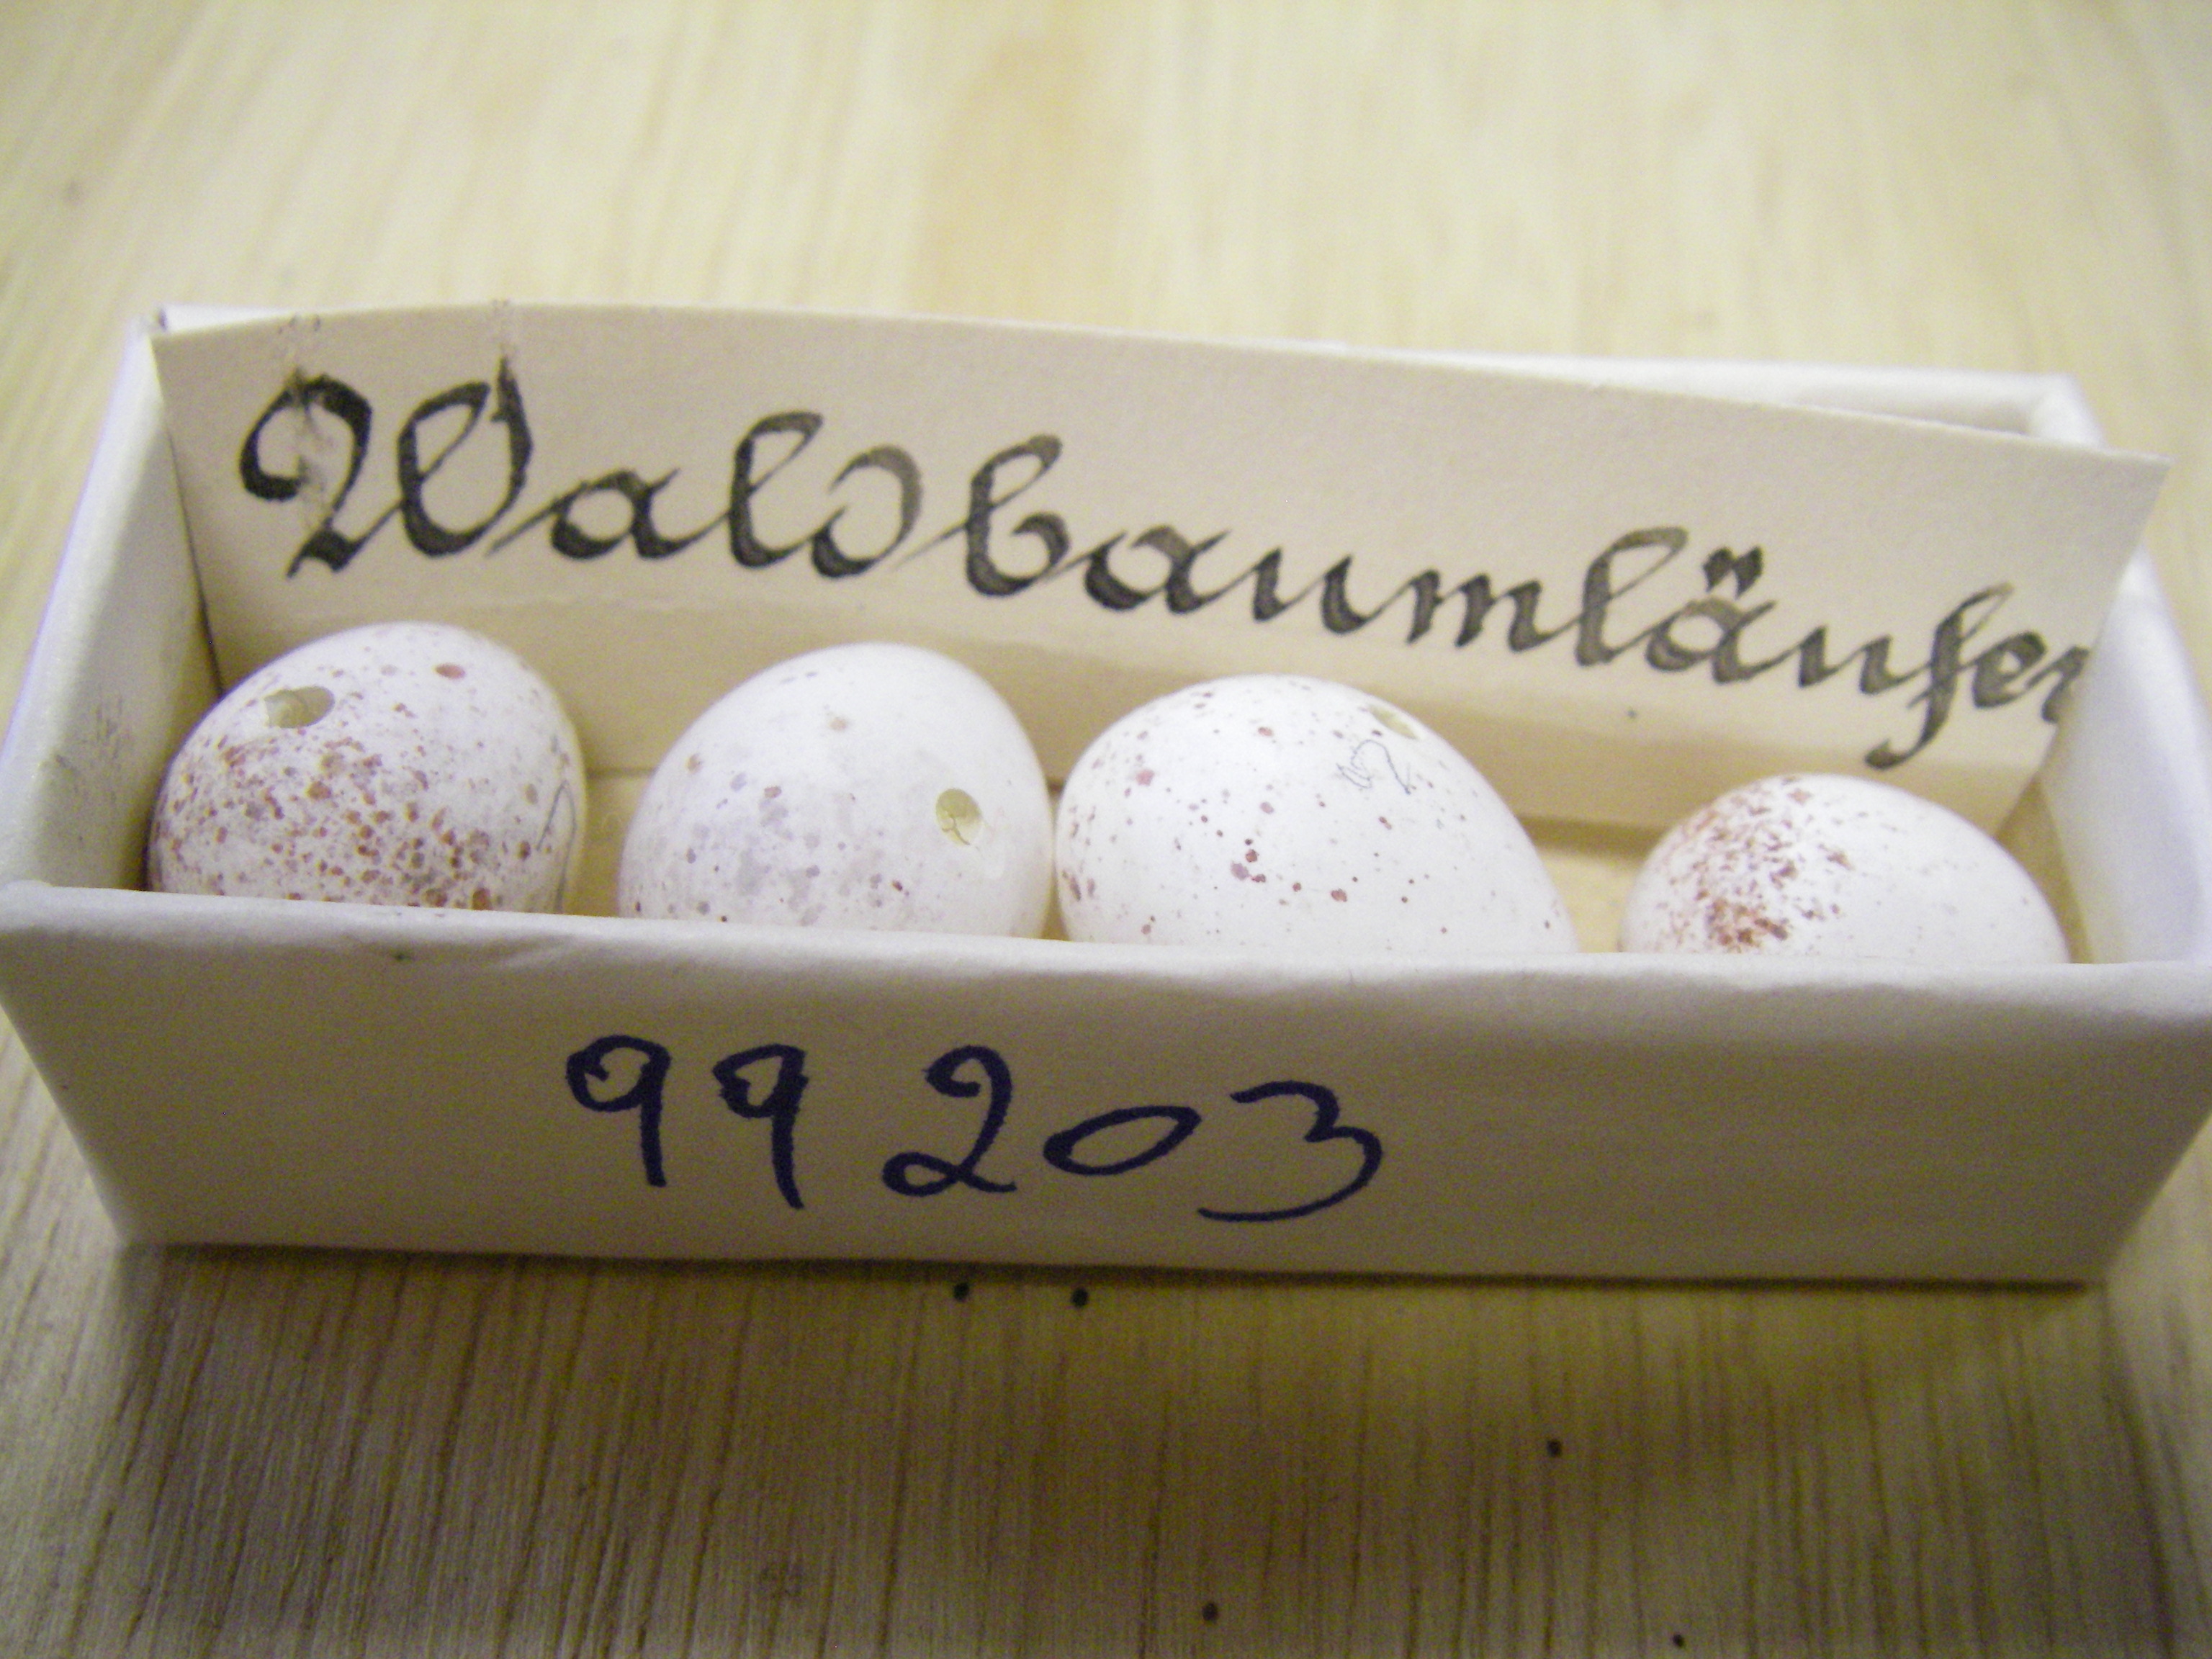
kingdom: Animalia
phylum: Chordata
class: Aves
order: Passeriformes
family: Certhiidae
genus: Certhia
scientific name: Certhia familiaris
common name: Eurasian treecreeper
